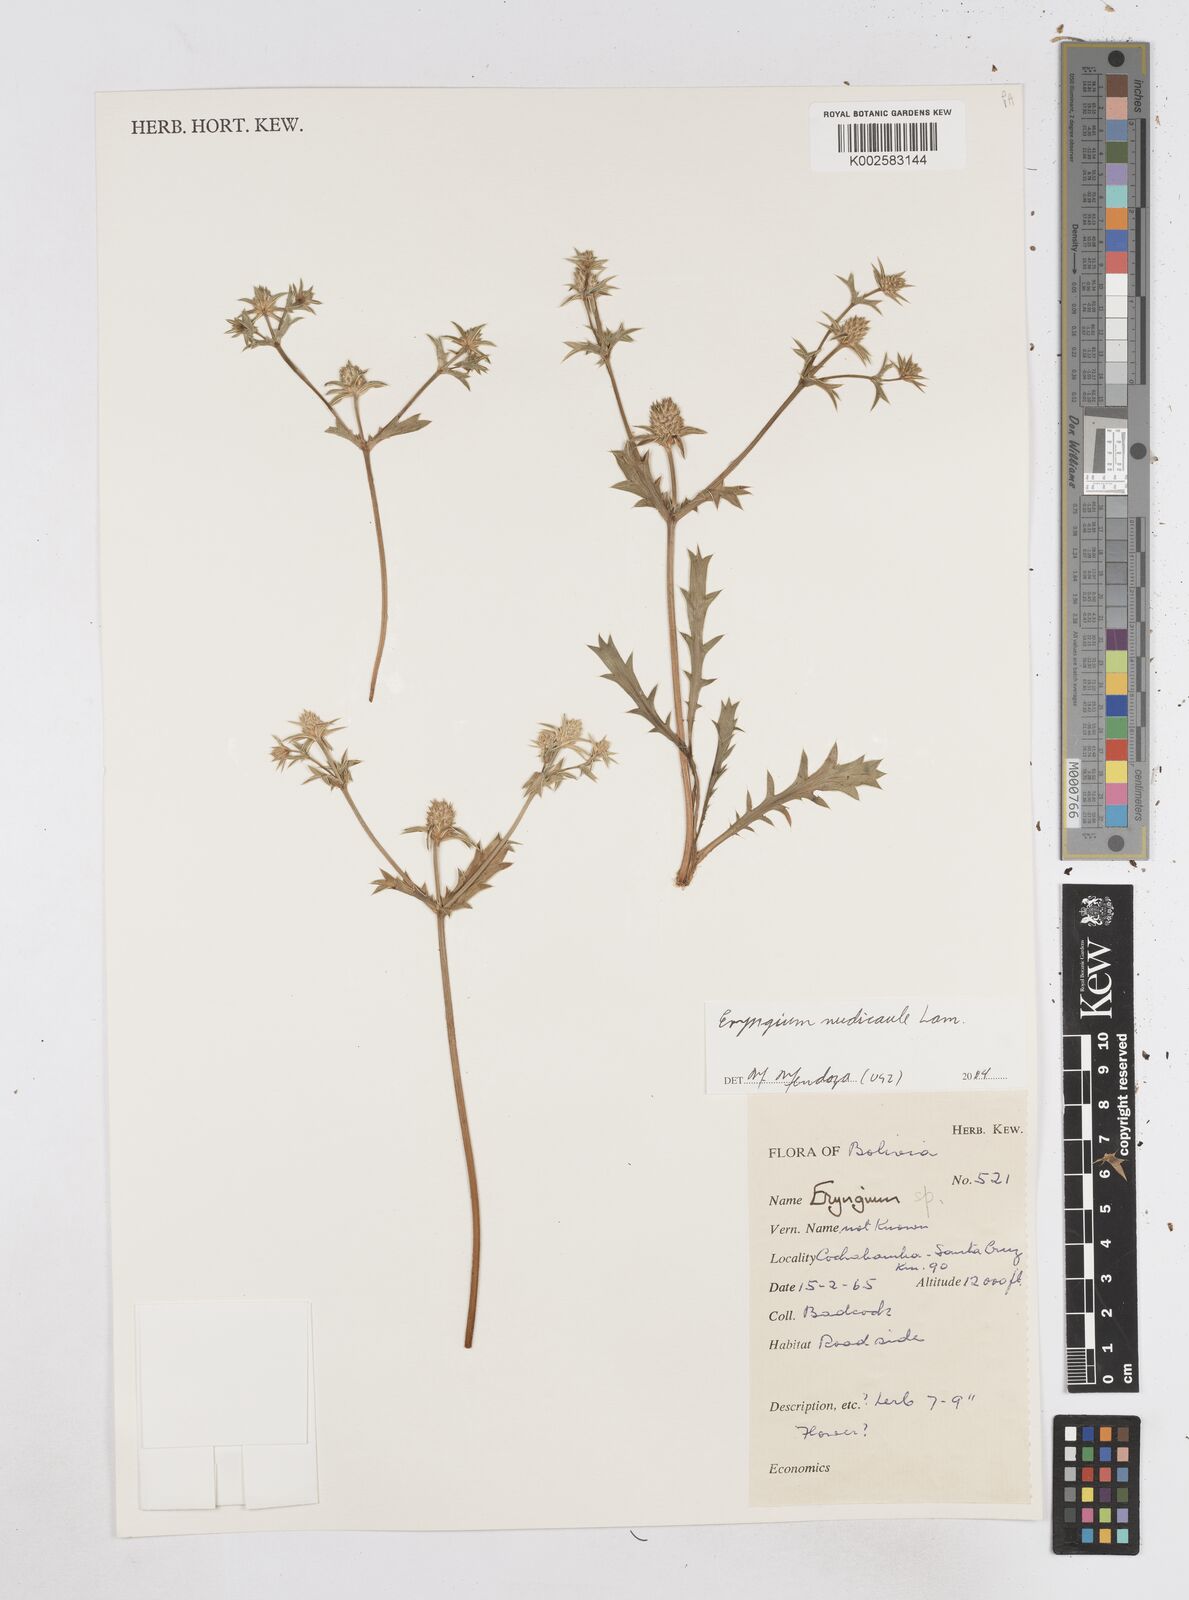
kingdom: Plantae
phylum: Tracheophyta
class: Magnoliopsida
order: Apiales
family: Apiaceae
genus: Eryngium
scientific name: Eryngium nudicaule
